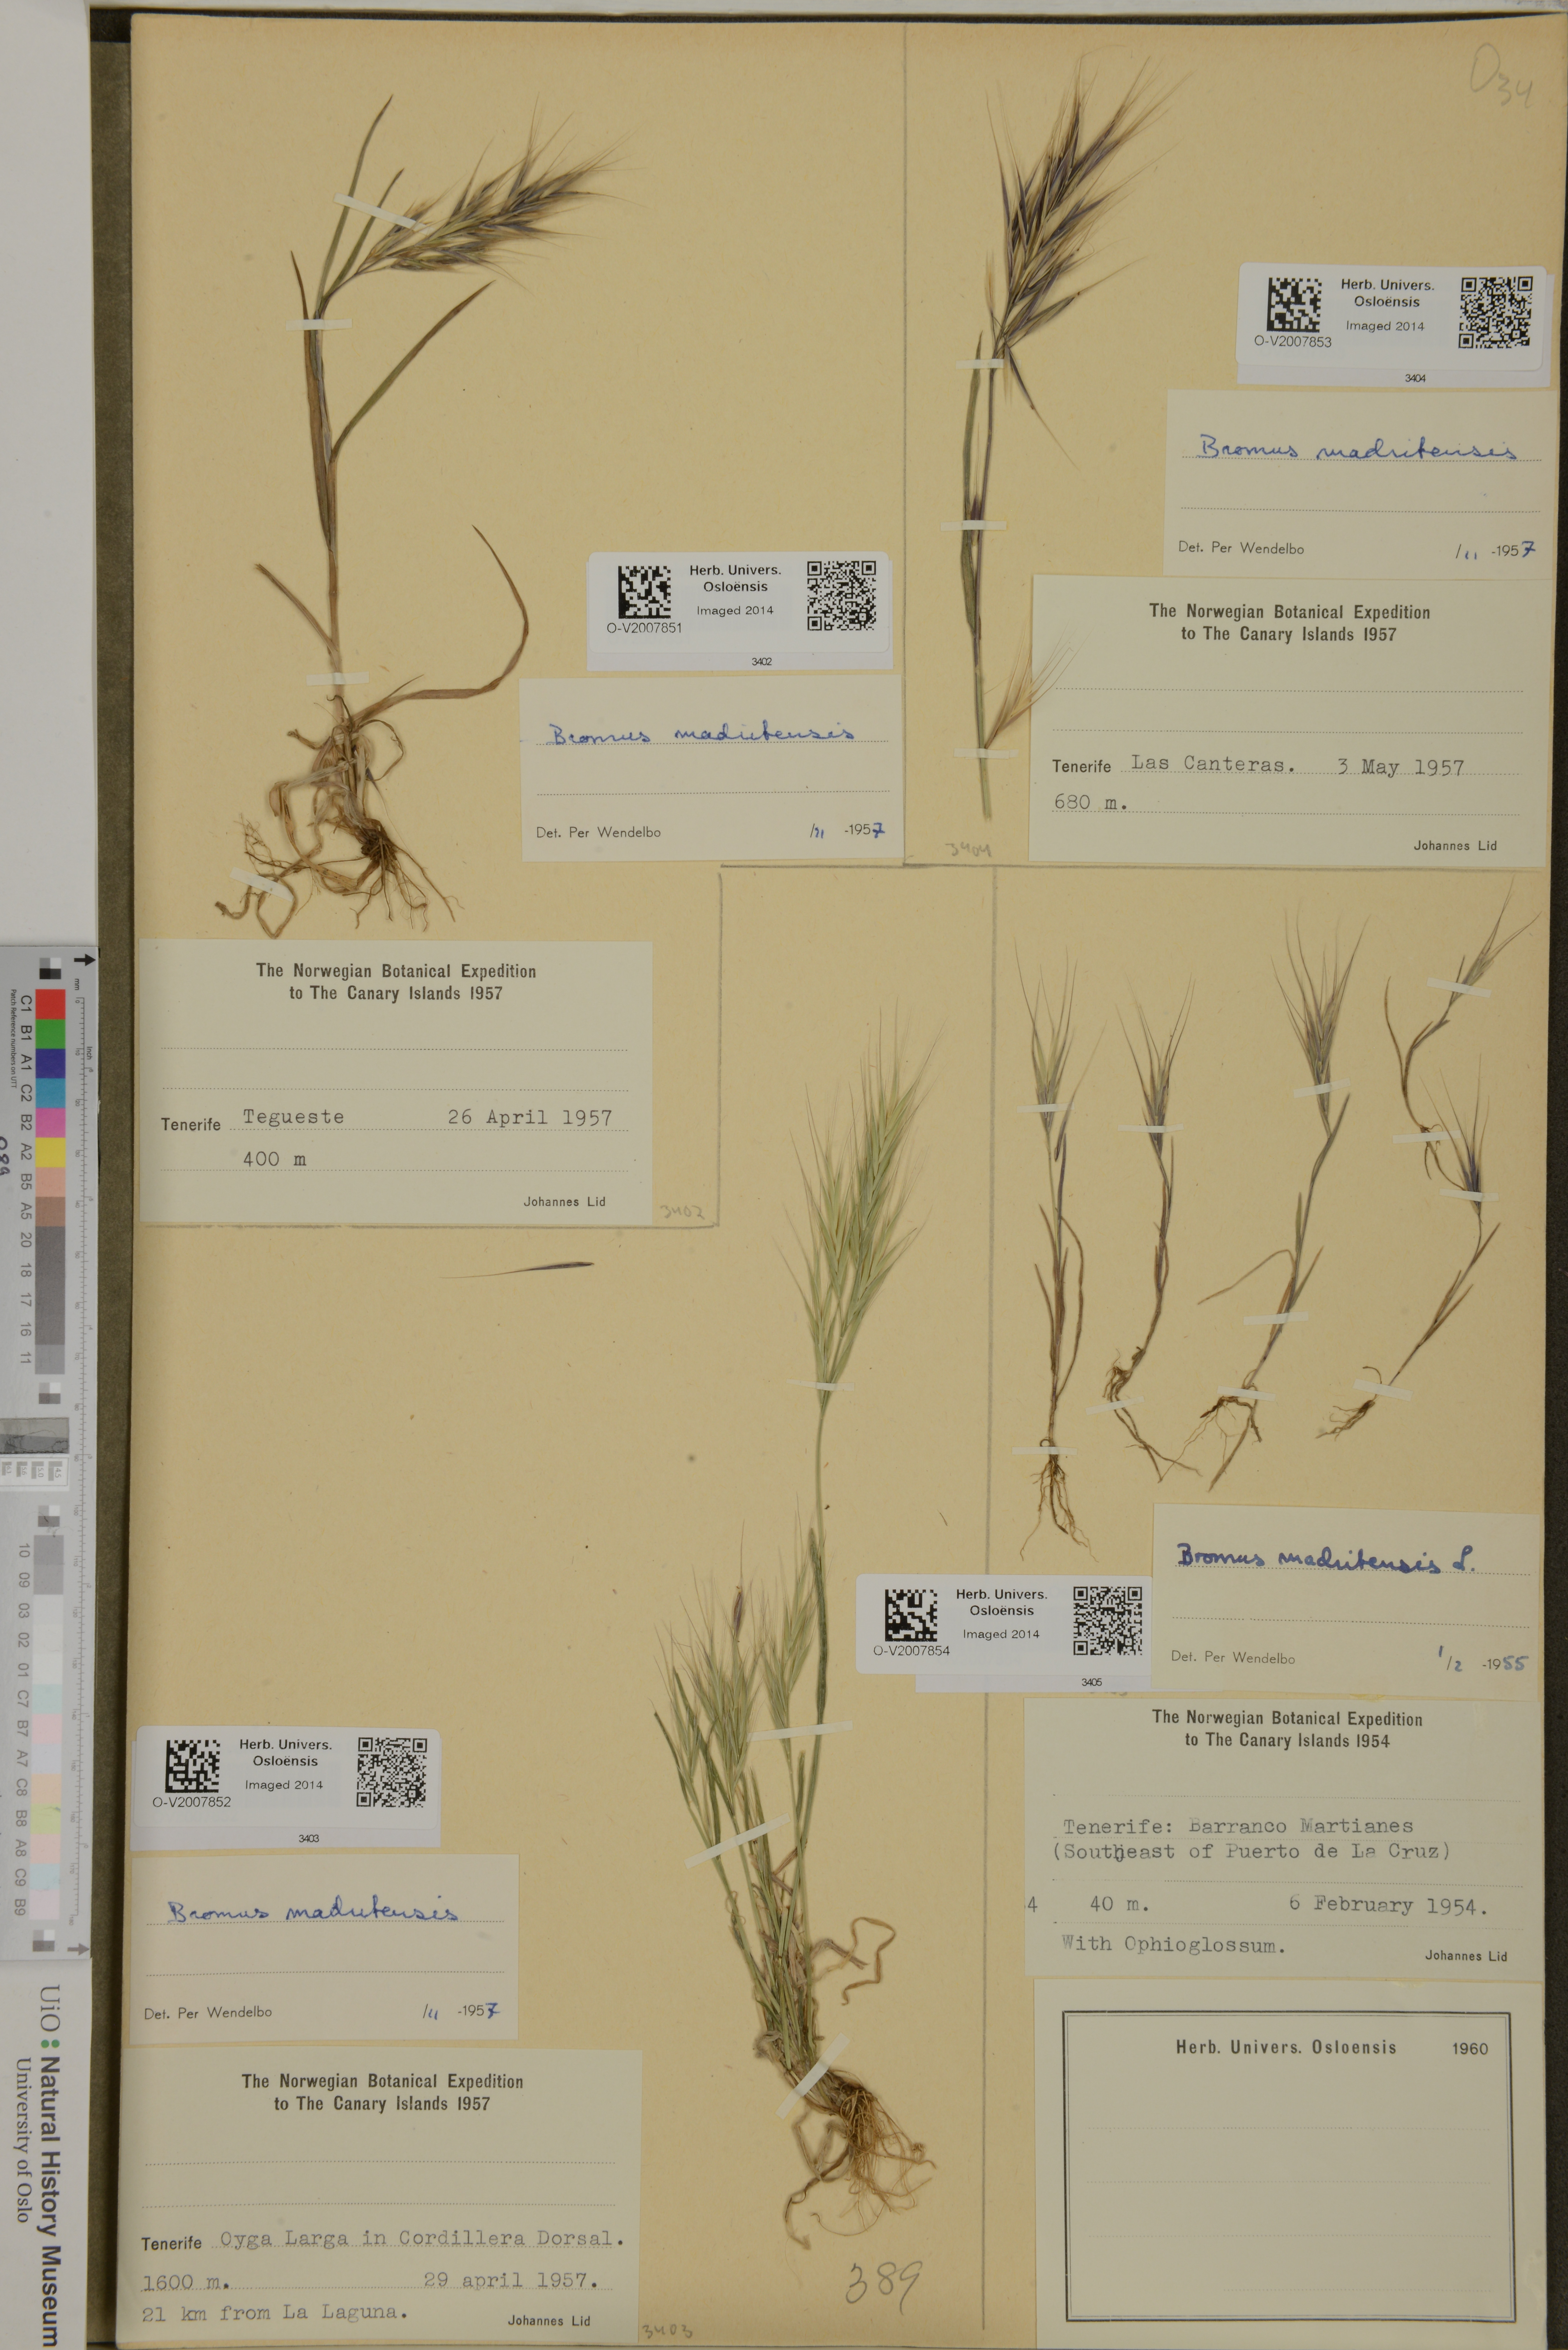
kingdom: Plantae
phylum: Tracheophyta
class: Liliopsida
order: Poales
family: Poaceae
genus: Bromus
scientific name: Bromus madritensis
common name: Compact brome
